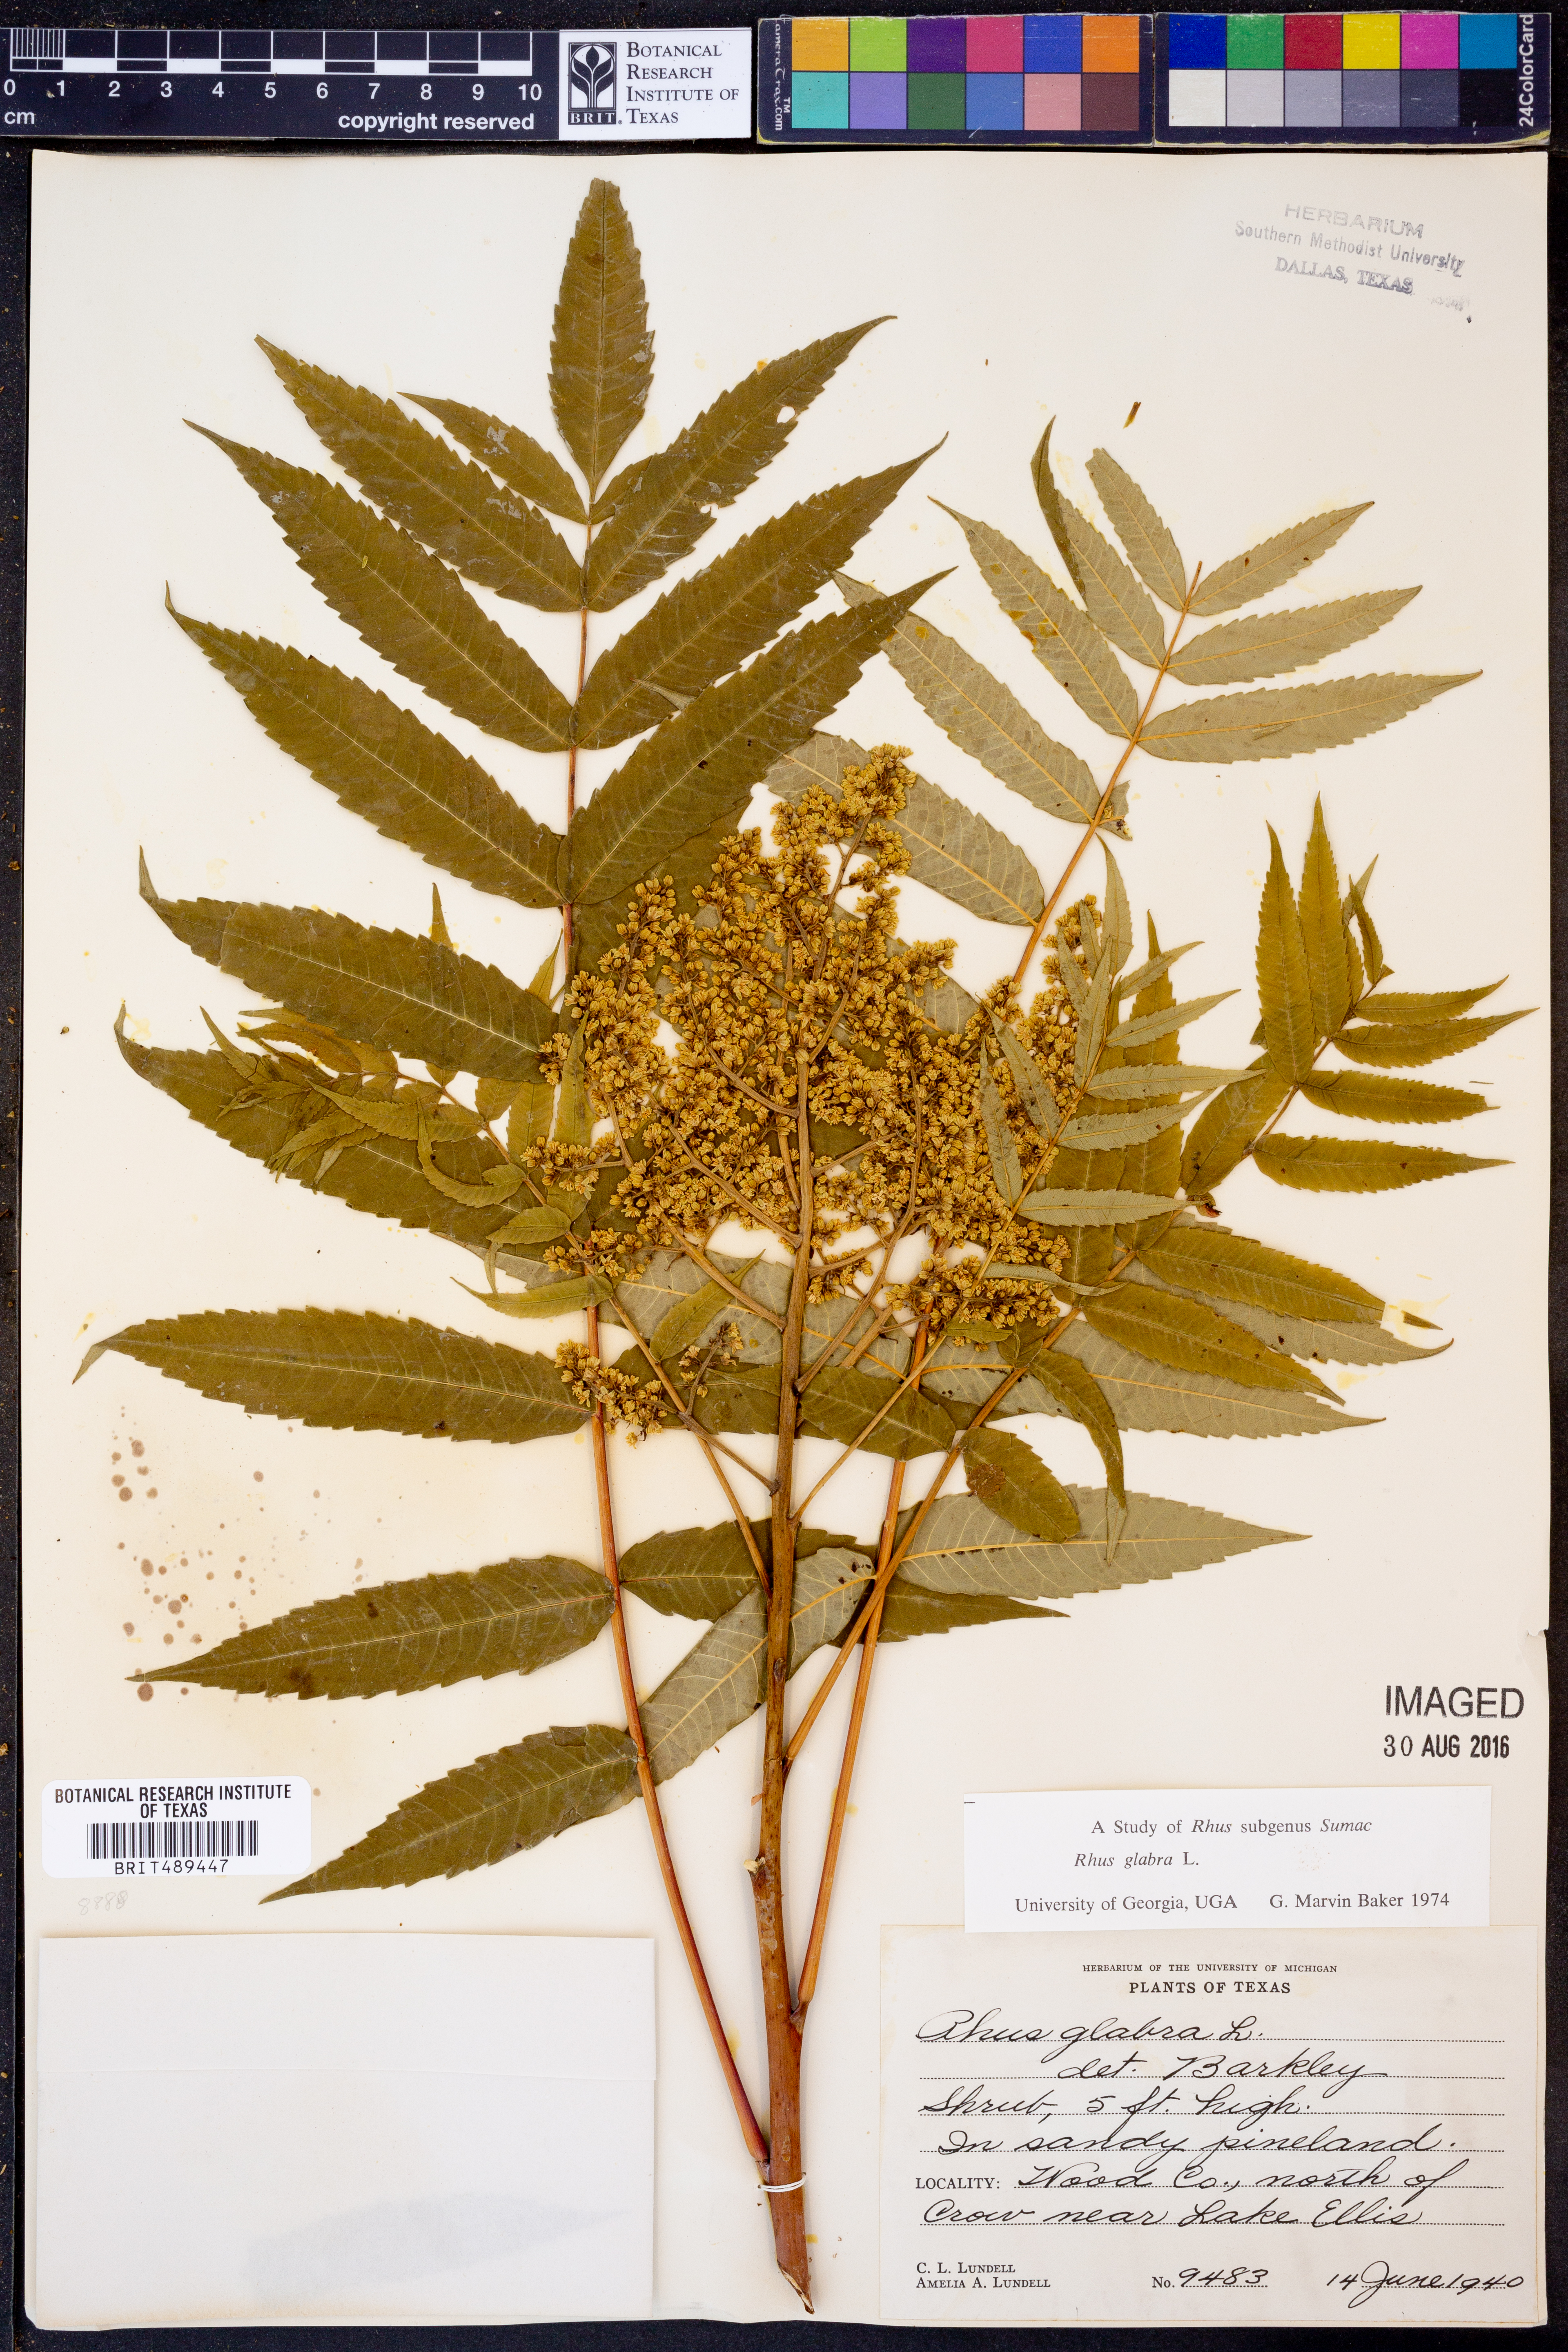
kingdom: Plantae
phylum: Tracheophyta
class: Magnoliopsida
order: Sapindales
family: Anacardiaceae
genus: Rhus
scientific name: Rhus glabra
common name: Scarlet sumac
